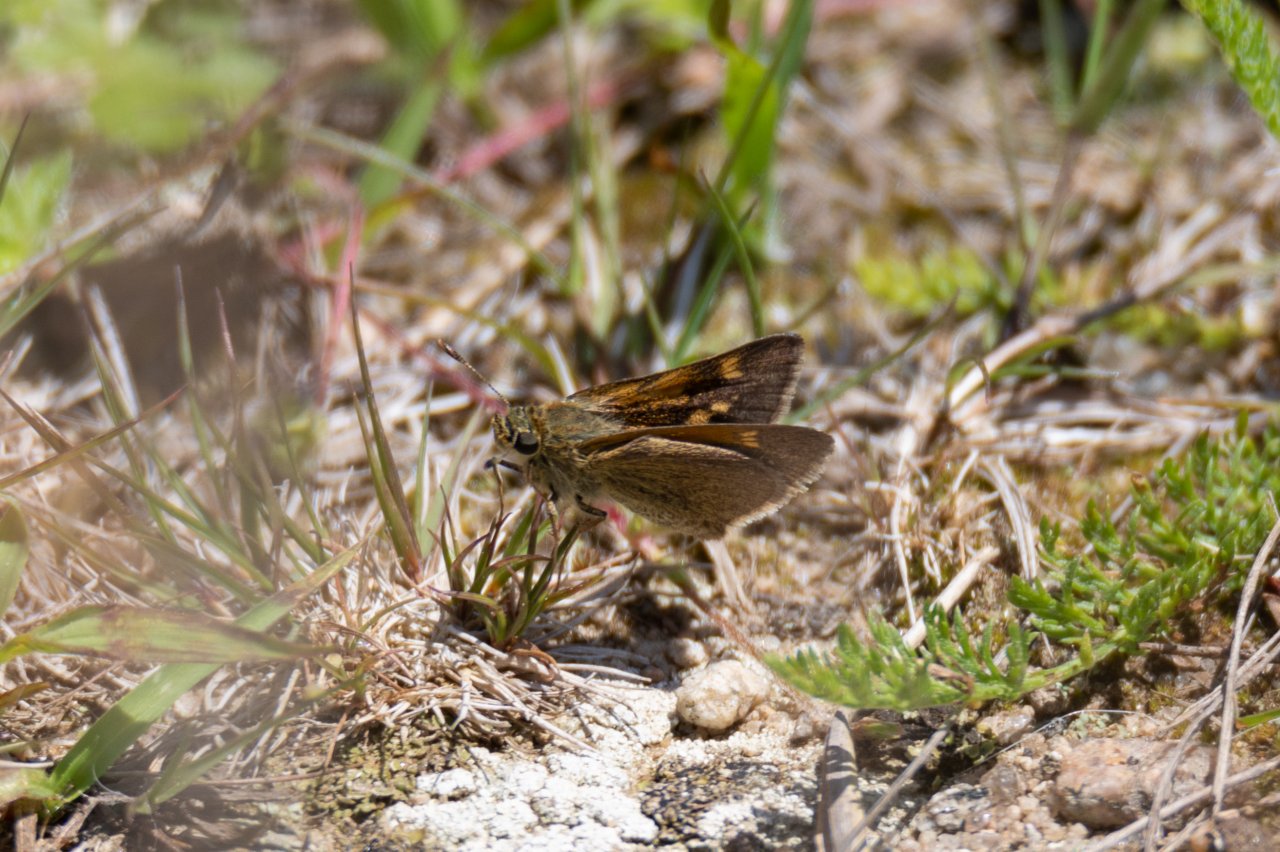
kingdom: Animalia
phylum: Arthropoda
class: Insecta
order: Lepidoptera
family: Hesperiidae
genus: Polites
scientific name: Polites themistocles
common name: Tawny-edged Skipper
